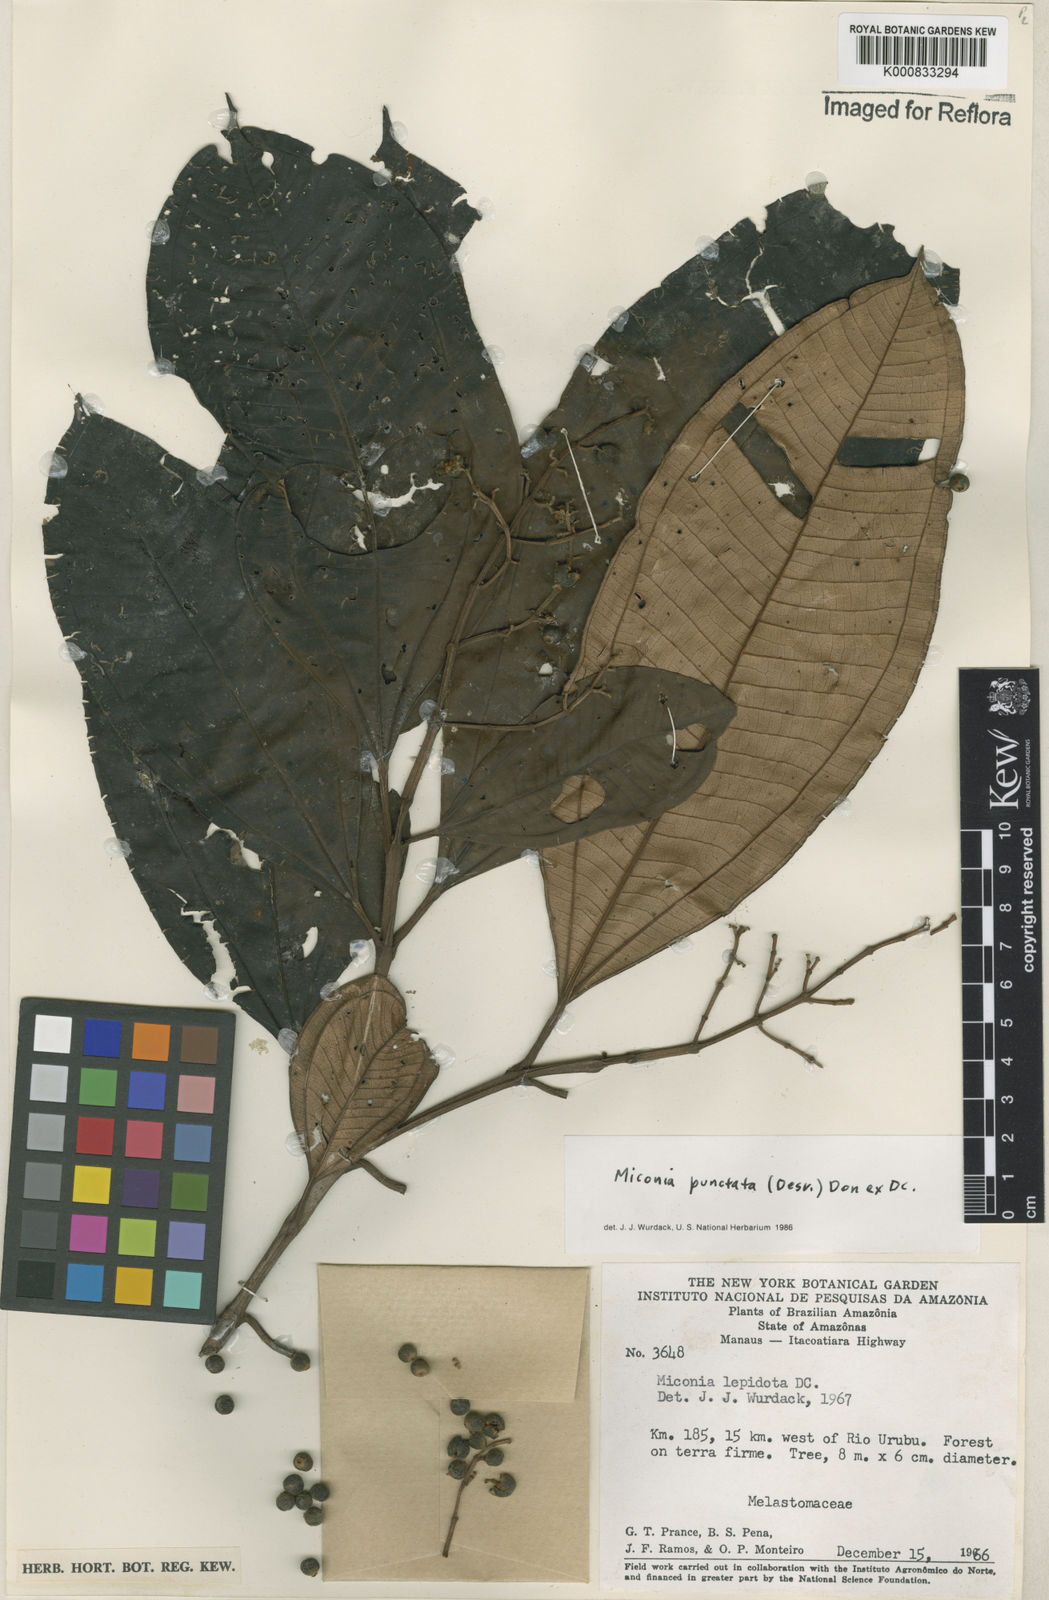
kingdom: Plantae
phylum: Tracheophyta
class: Magnoliopsida
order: Myrtales
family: Melastomataceae
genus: Miconia
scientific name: Miconia punctata
